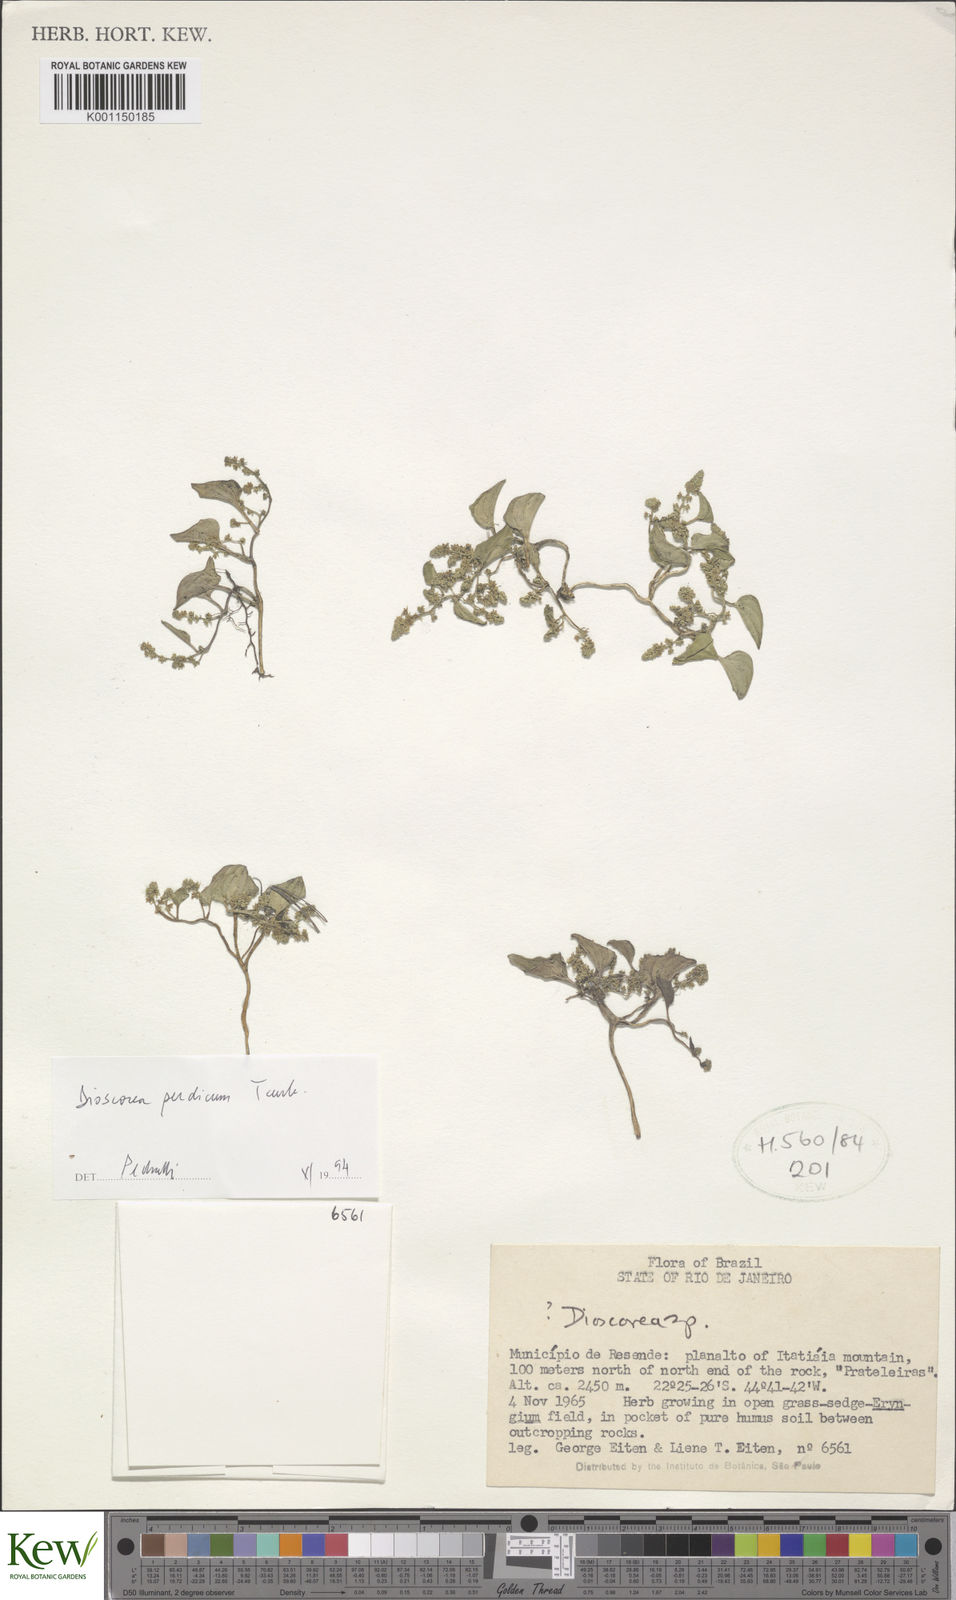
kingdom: Plantae
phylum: Tracheophyta
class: Liliopsida
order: Dioscoreales
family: Dioscoreaceae
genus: Dioscorea
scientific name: Dioscorea perdicum
